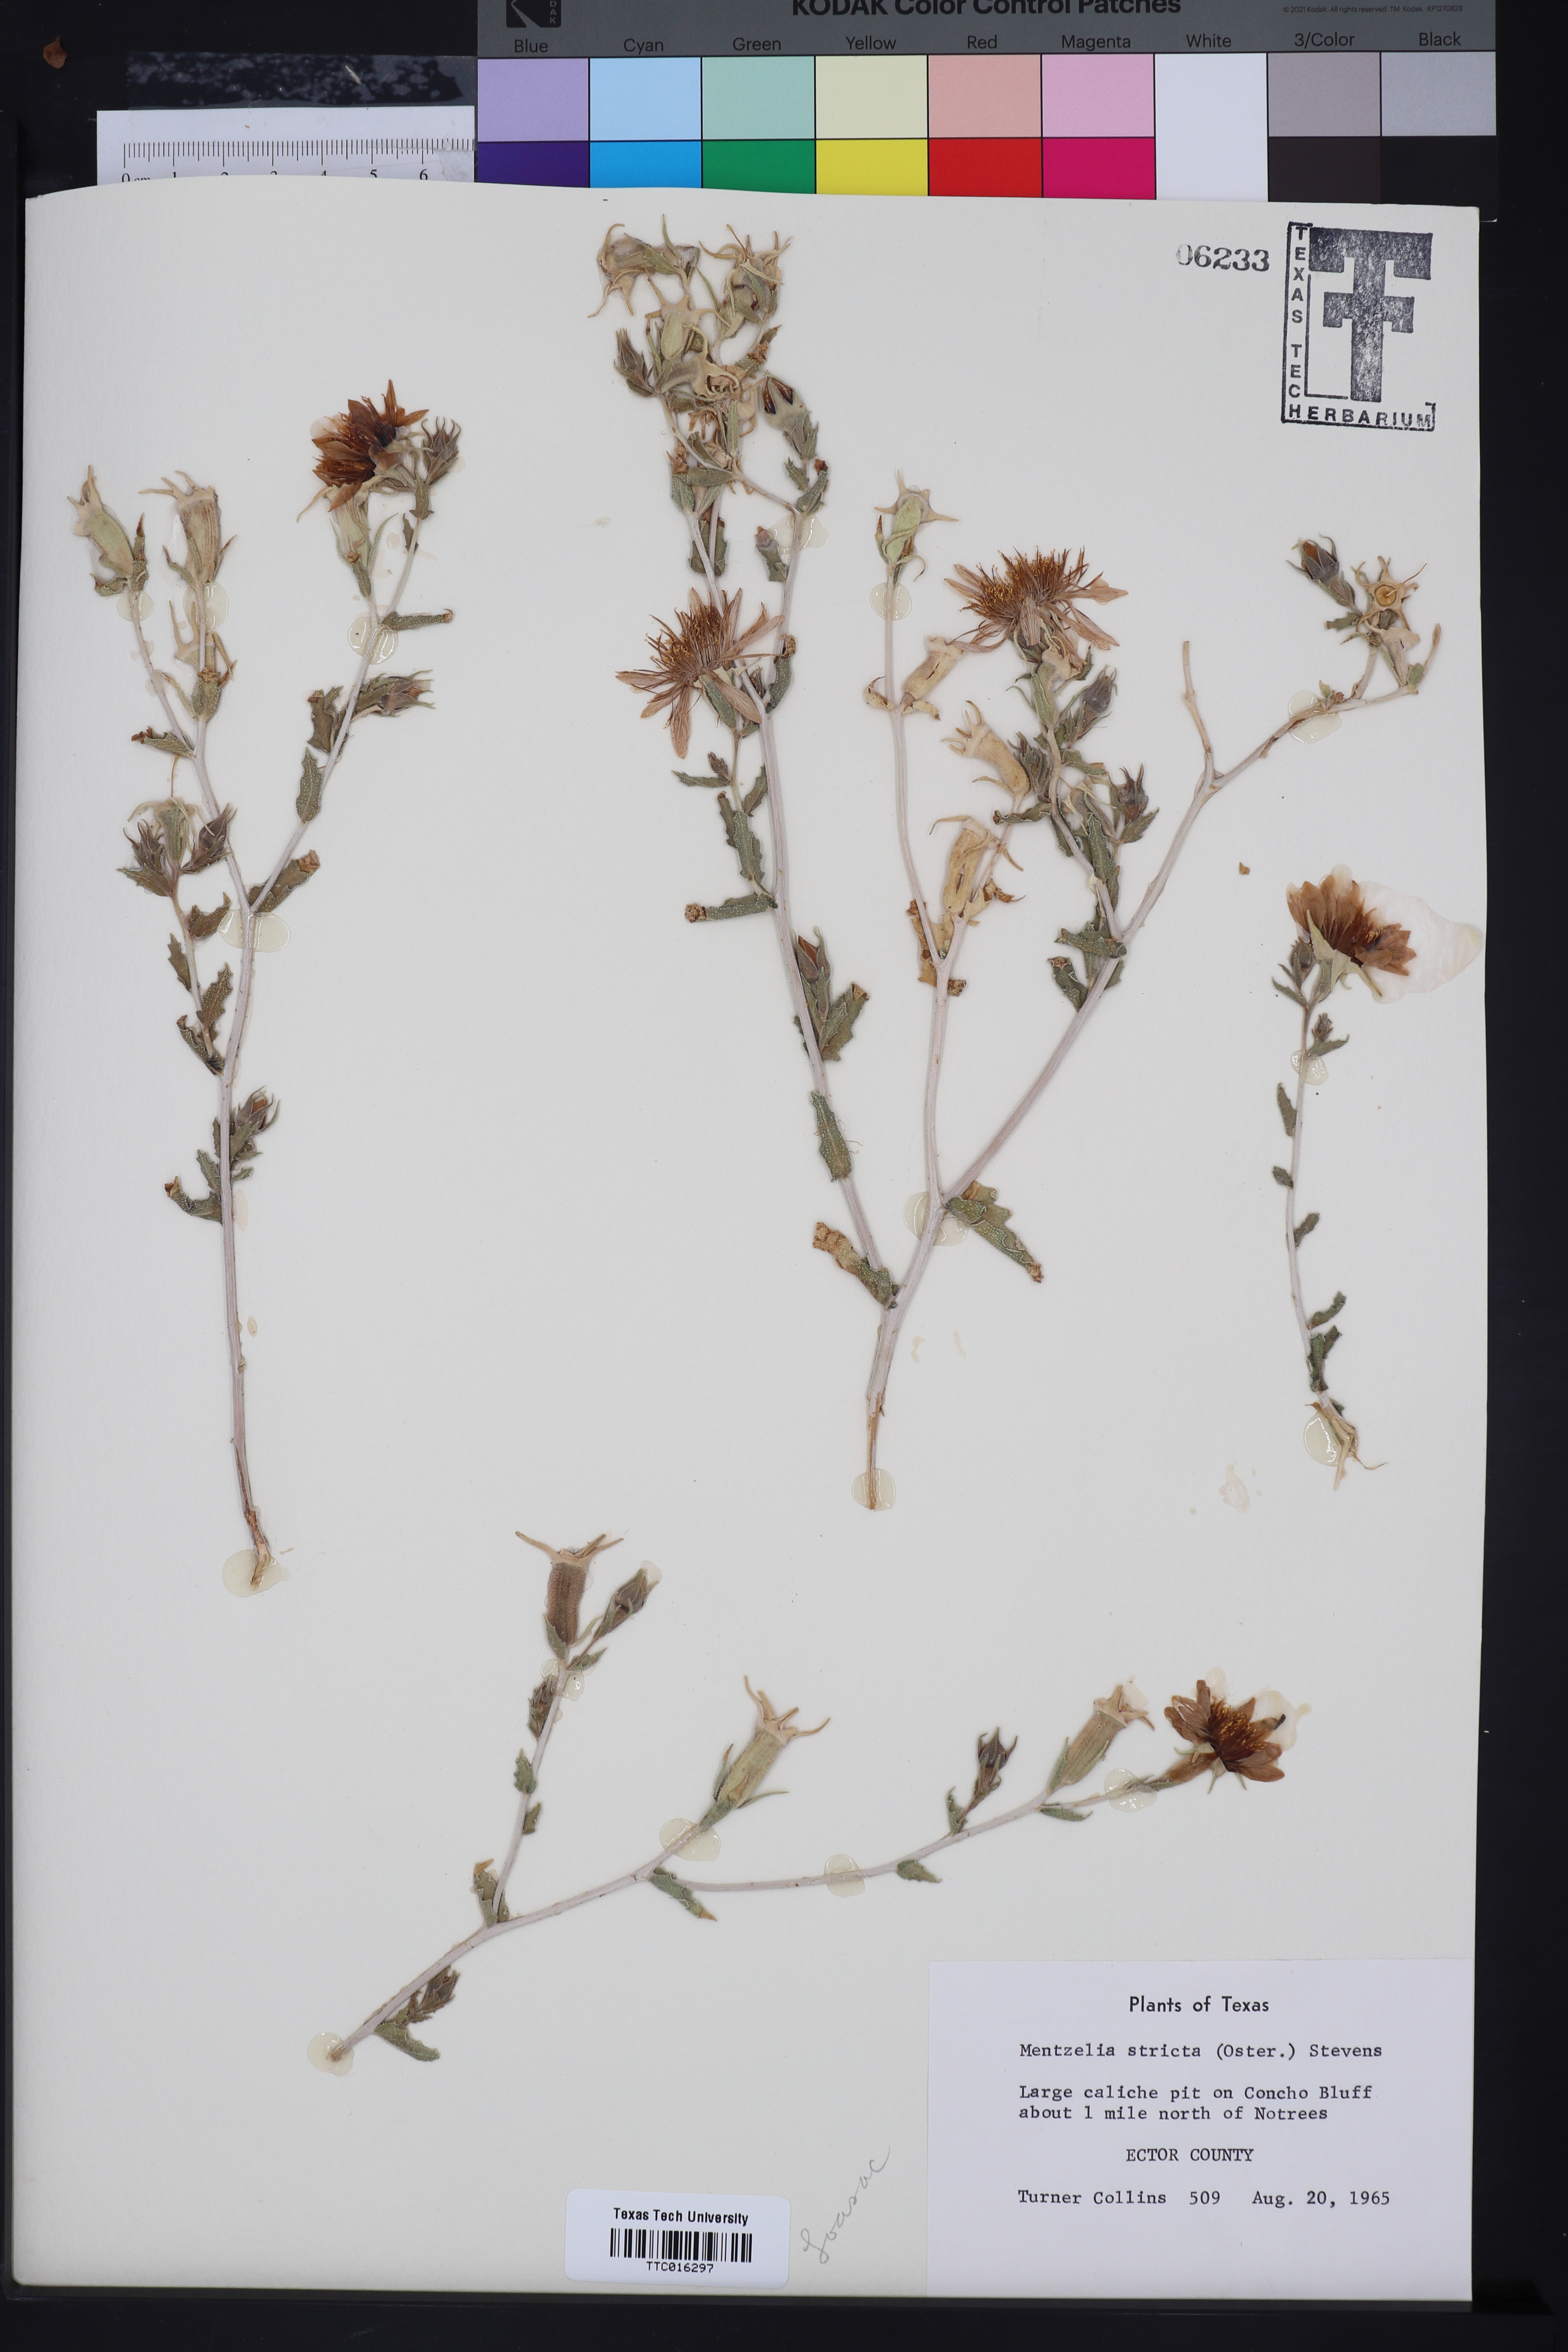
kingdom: Plantae
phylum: Tracheophyta
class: Magnoliopsida
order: Cornales
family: Loasaceae
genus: Mentzelia
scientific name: Mentzelia nuda
